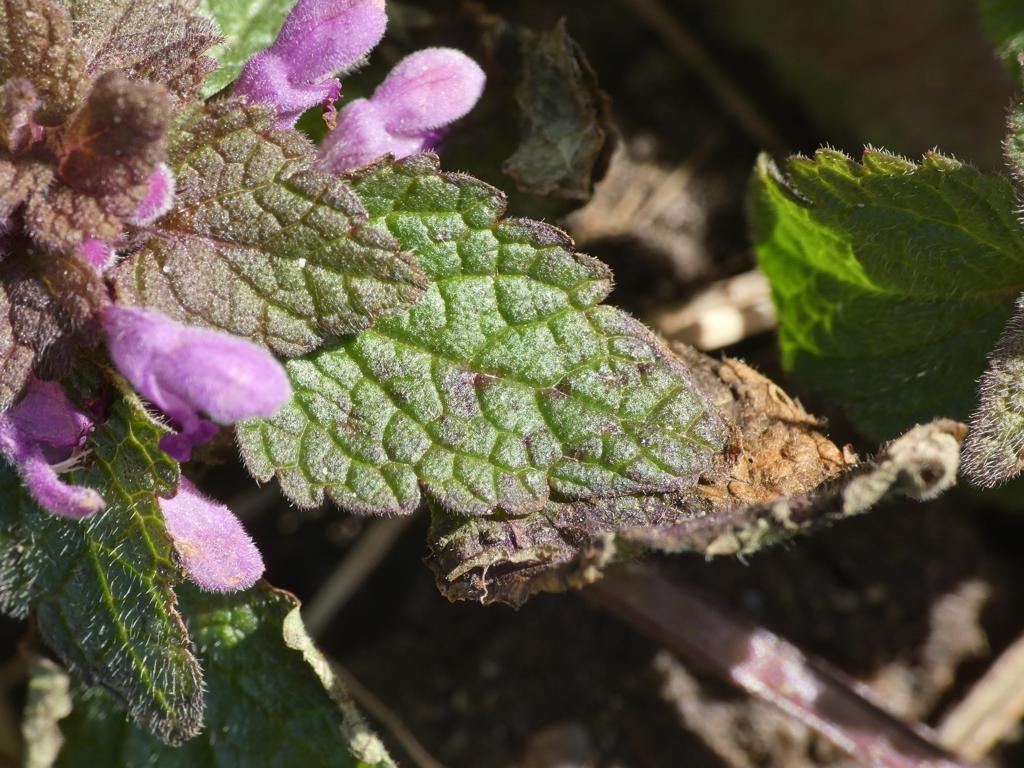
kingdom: Plantae
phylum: Tracheophyta
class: Magnoliopsida
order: Lamiales
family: Lamiaceae
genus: Lamium
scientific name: Lamium purpureum
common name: Rød tvetand
